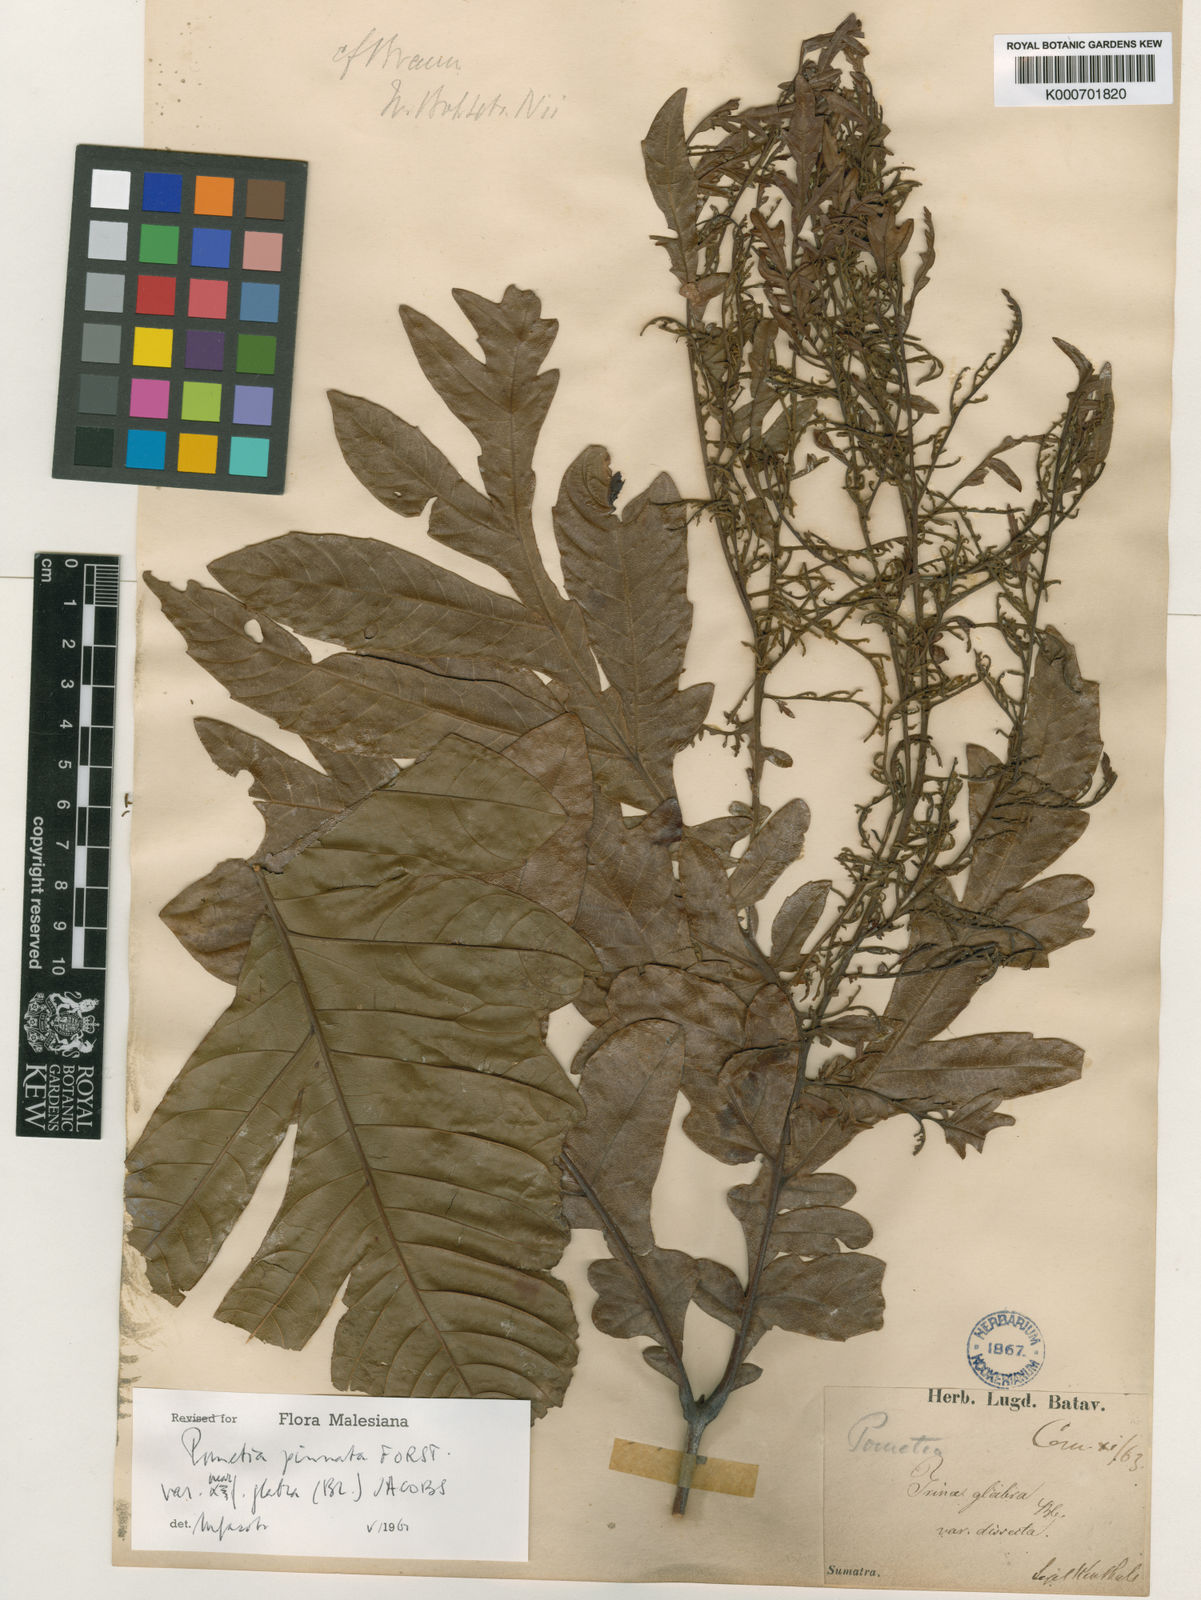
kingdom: Plantae
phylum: Tracheophyta
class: Magnoliopsida
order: Sapindales
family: Sapindaceae
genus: Pometia
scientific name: Pometia pinnata
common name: Oceanic lychee
